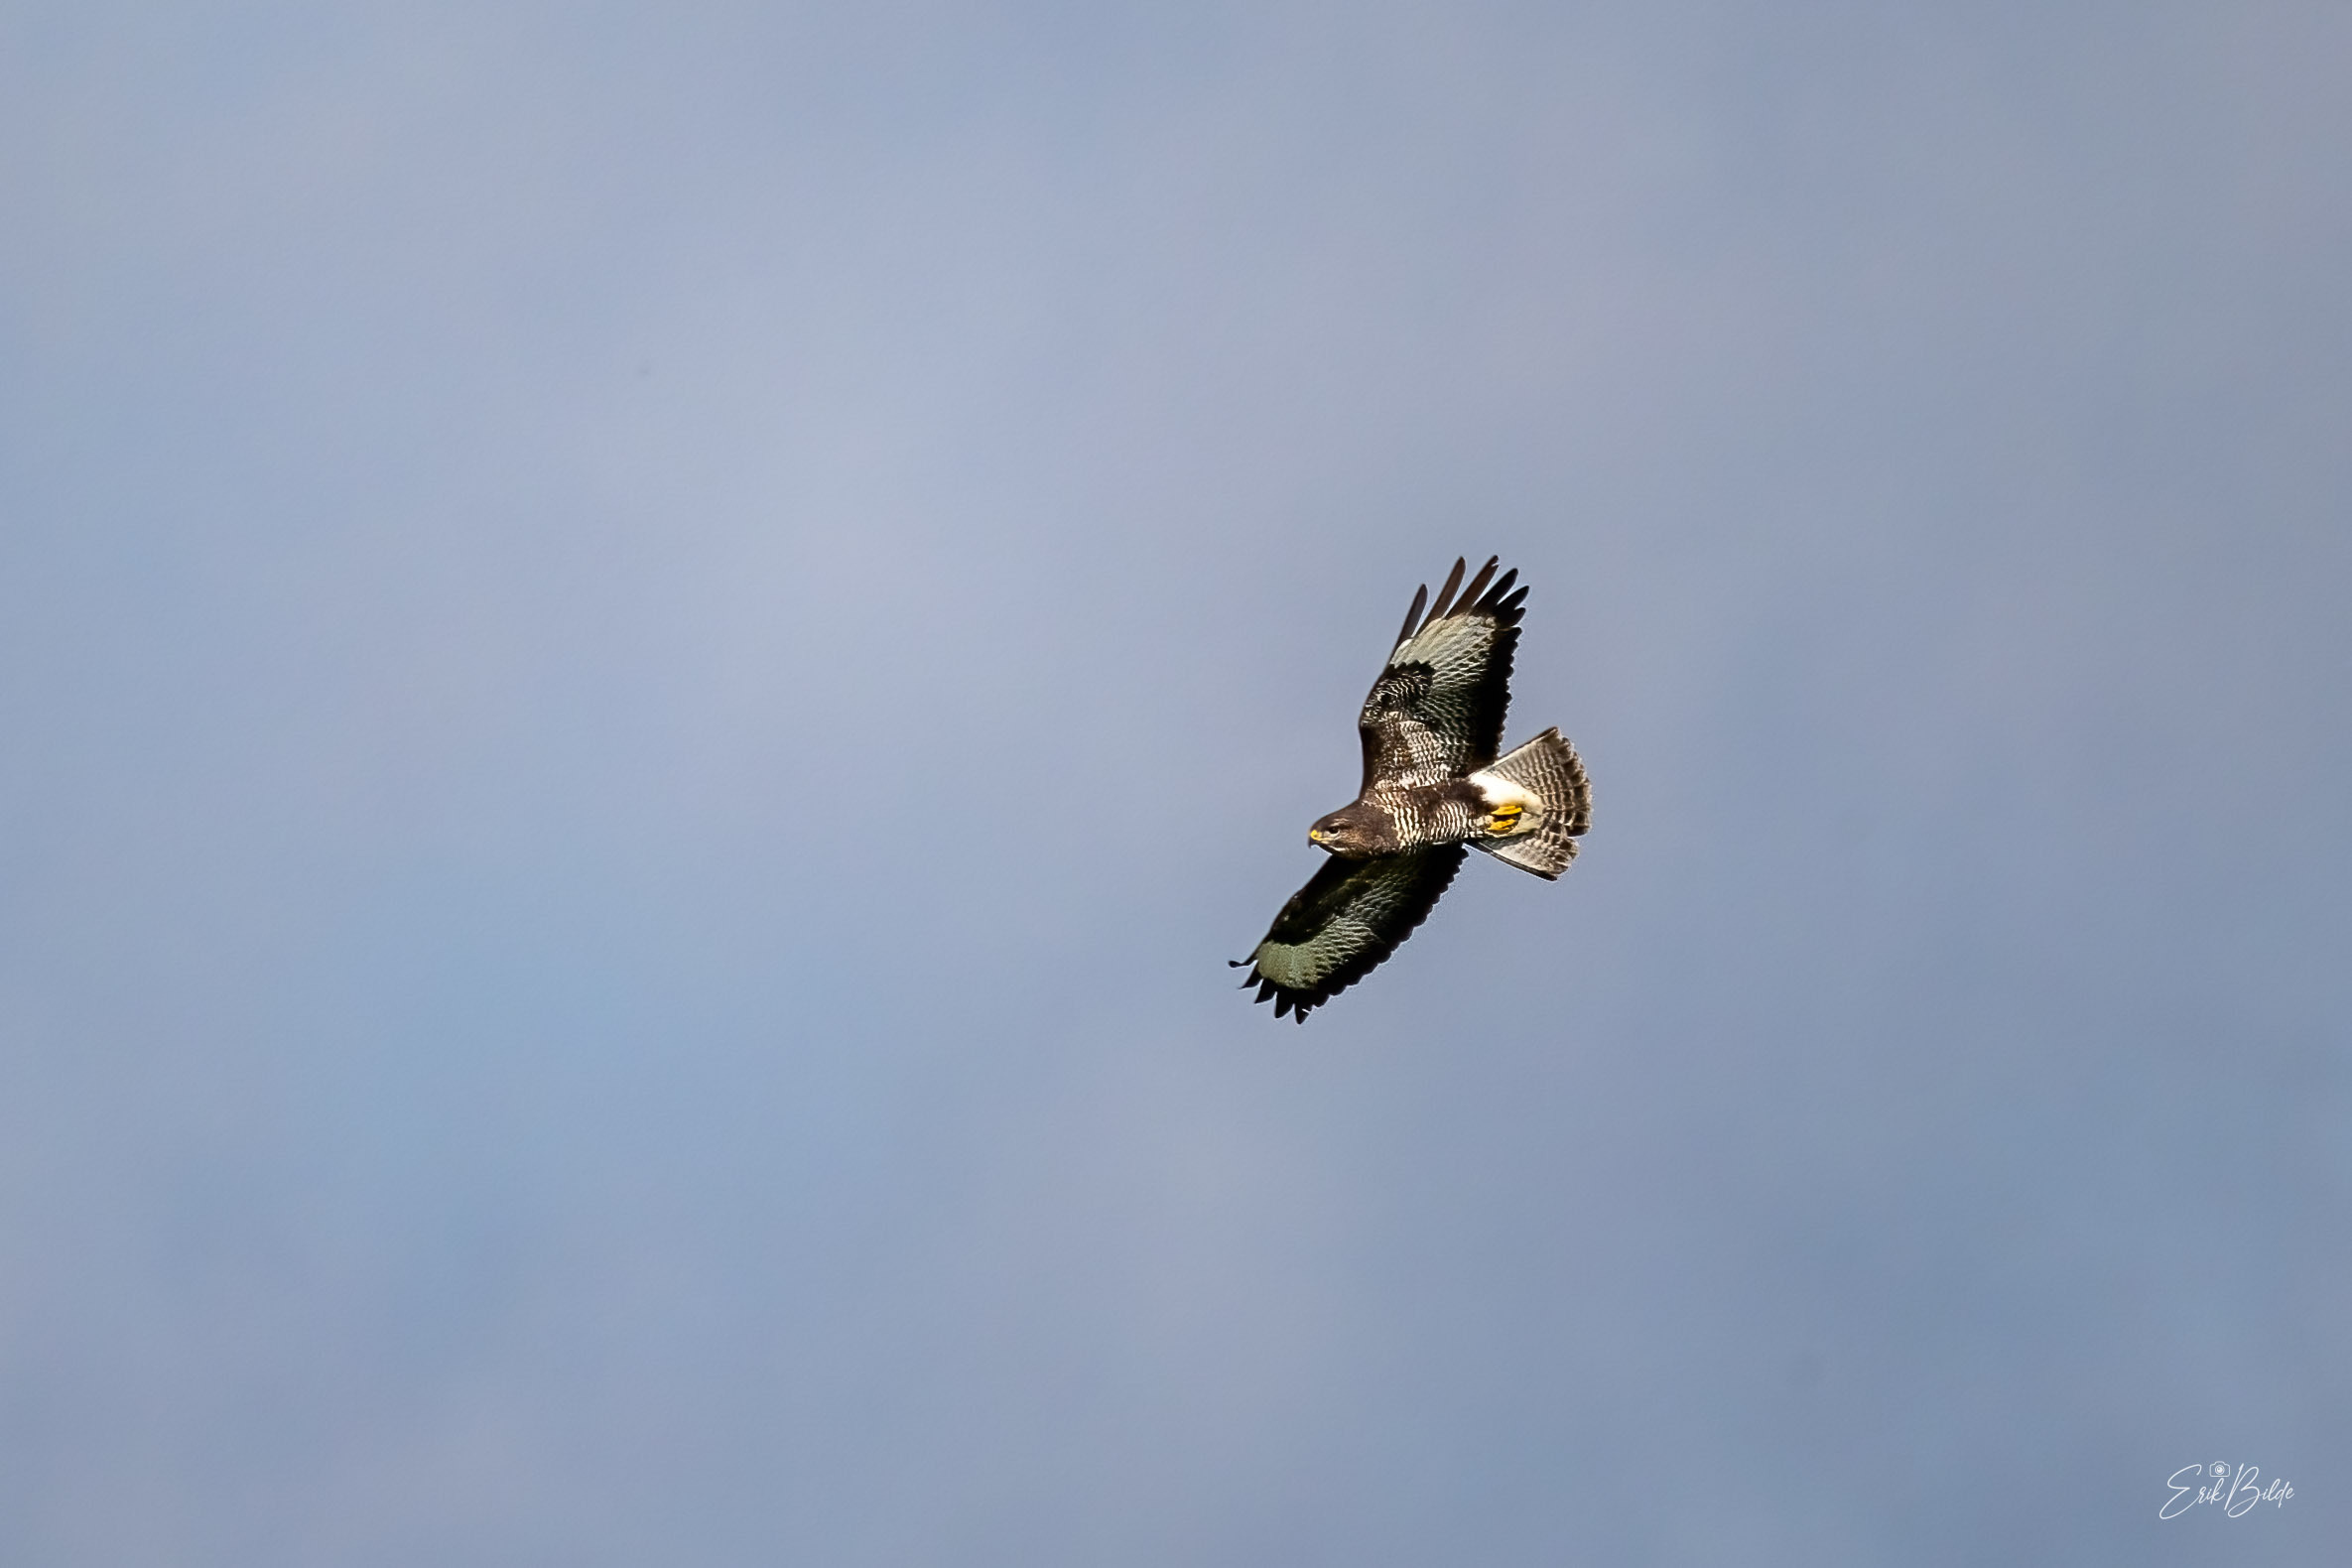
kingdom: Animalia
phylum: Chordata
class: Aves
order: Accipitriformes
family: Accipitridae
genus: Buteo
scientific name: Buteo buteo
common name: Musvåge
